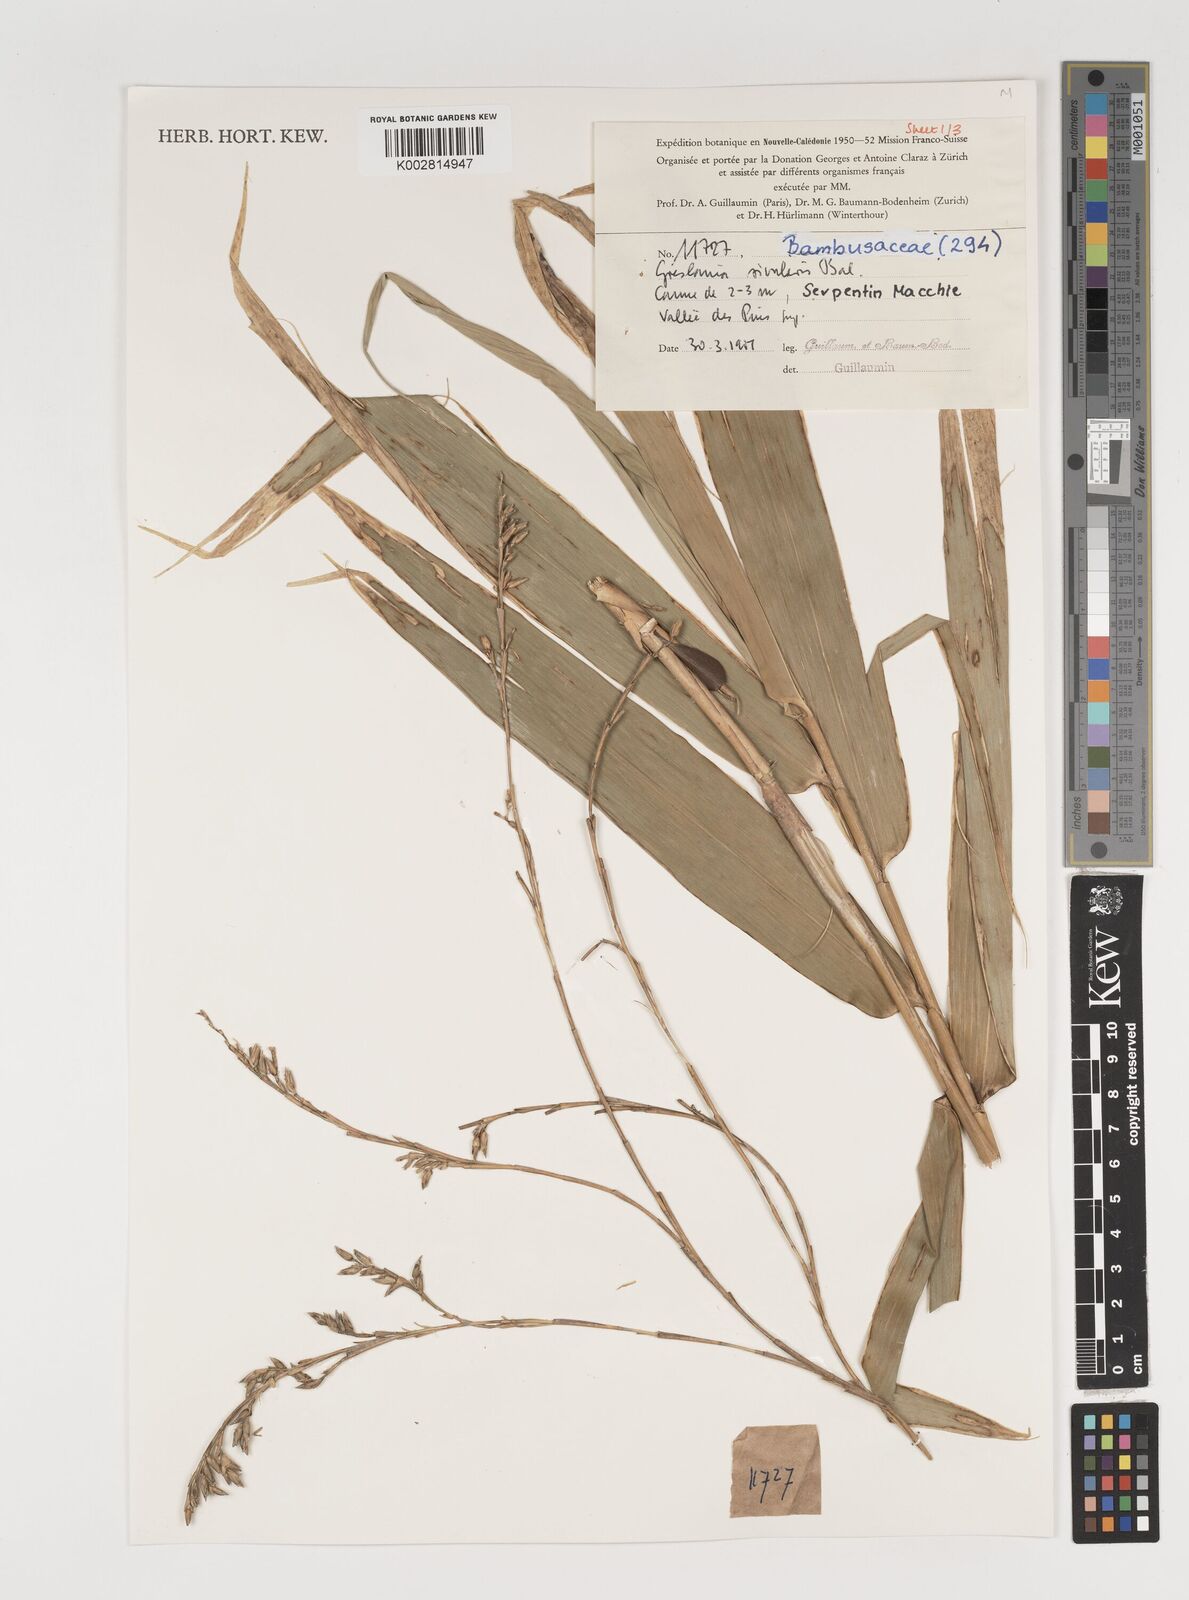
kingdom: Plantae
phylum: Tracheophyta
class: Liliopsida
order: Poales
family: Poaceae
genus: Greslania
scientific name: Greslania
